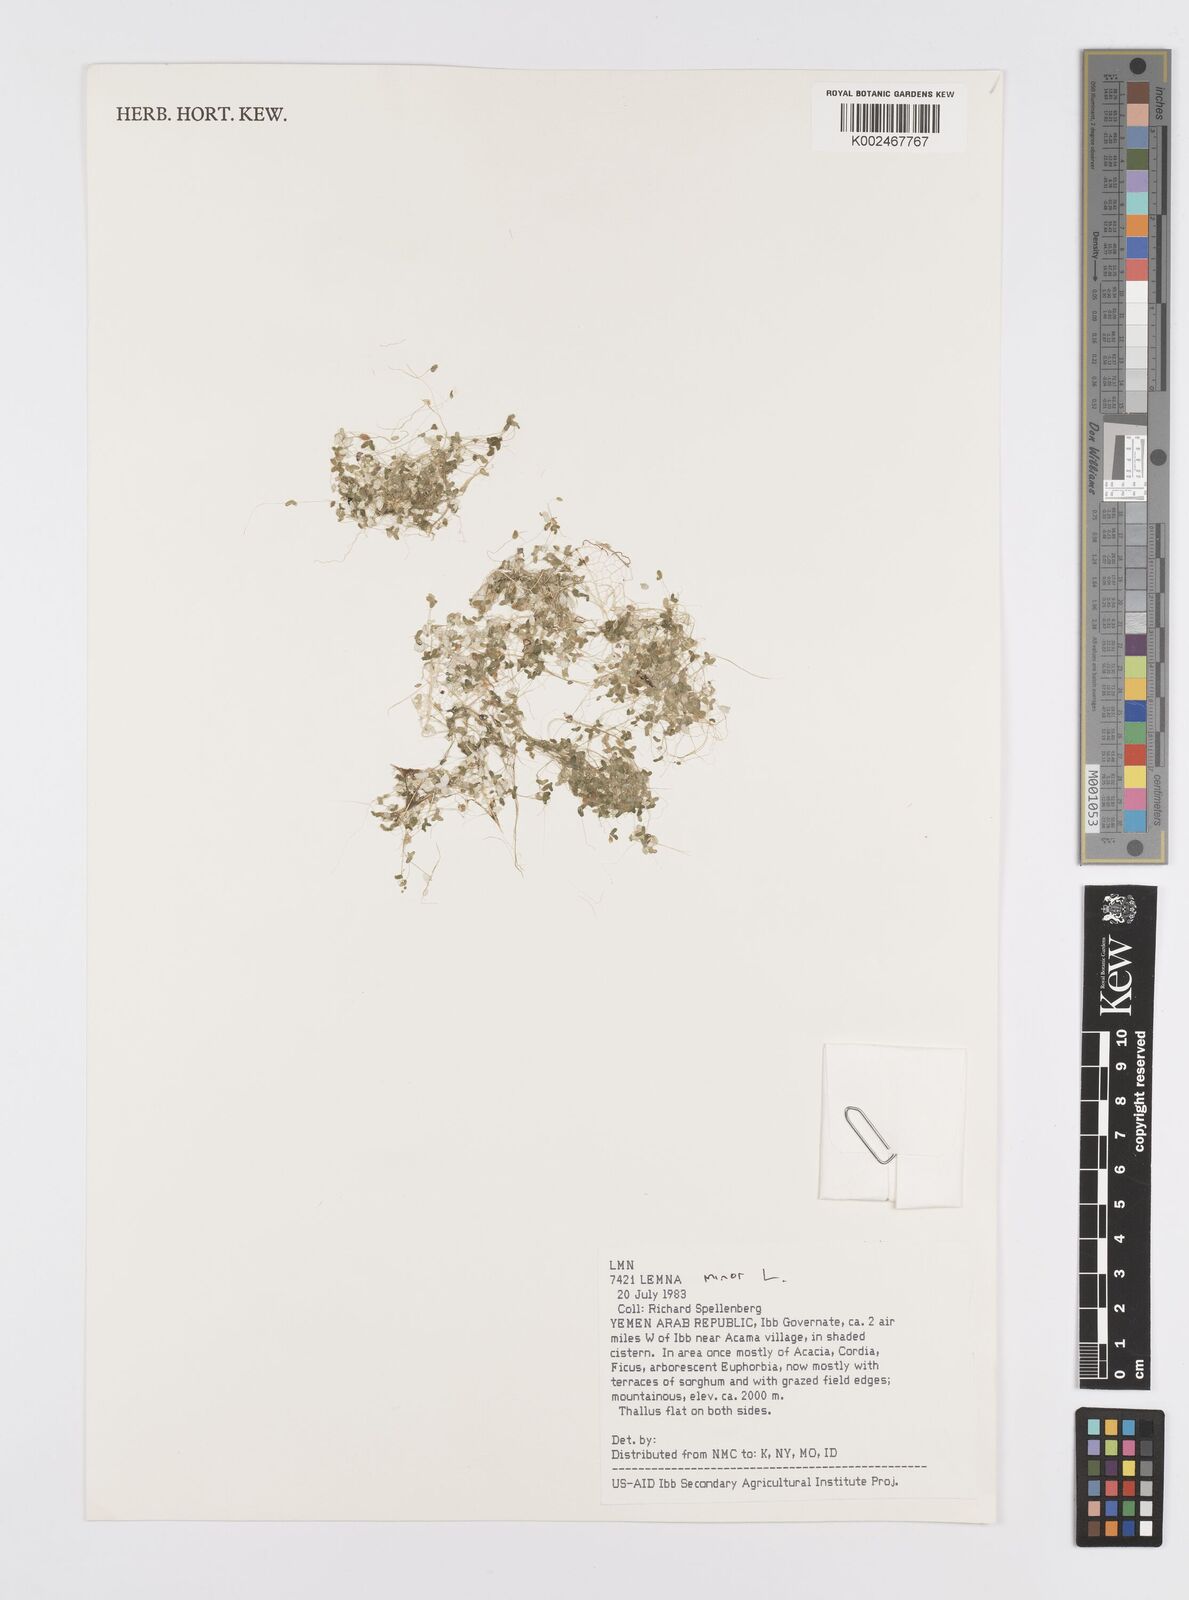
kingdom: Plantae
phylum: Tracheophyta
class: Liliopsida
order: Alismatales
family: Araceae
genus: Lemna
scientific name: Lemna minor
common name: Common duckweed
